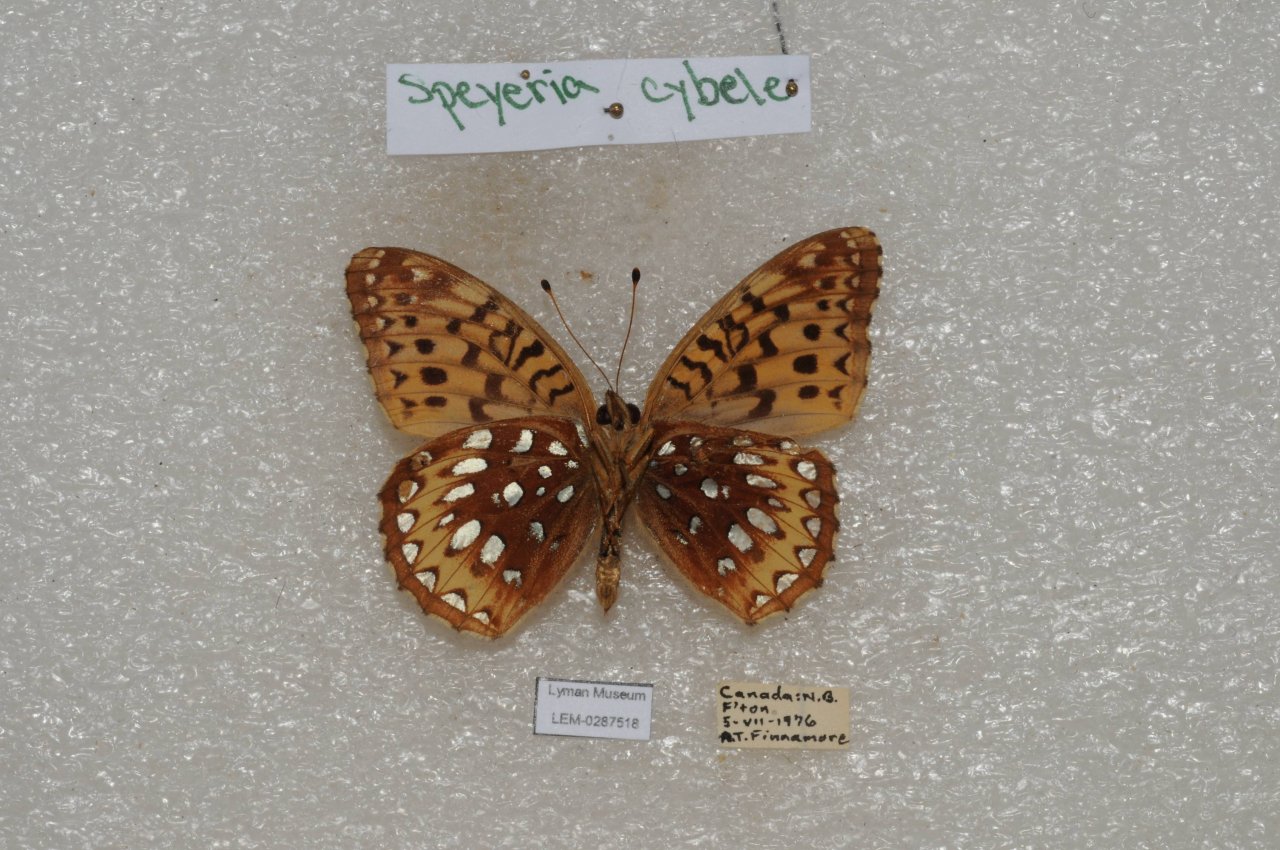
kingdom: Animalia
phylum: Arthropoda
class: Insecta
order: Lepidoptera
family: Nymphalidae
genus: Speyeria
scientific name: Speyeria cybele
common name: Great Spangled Fritillary
